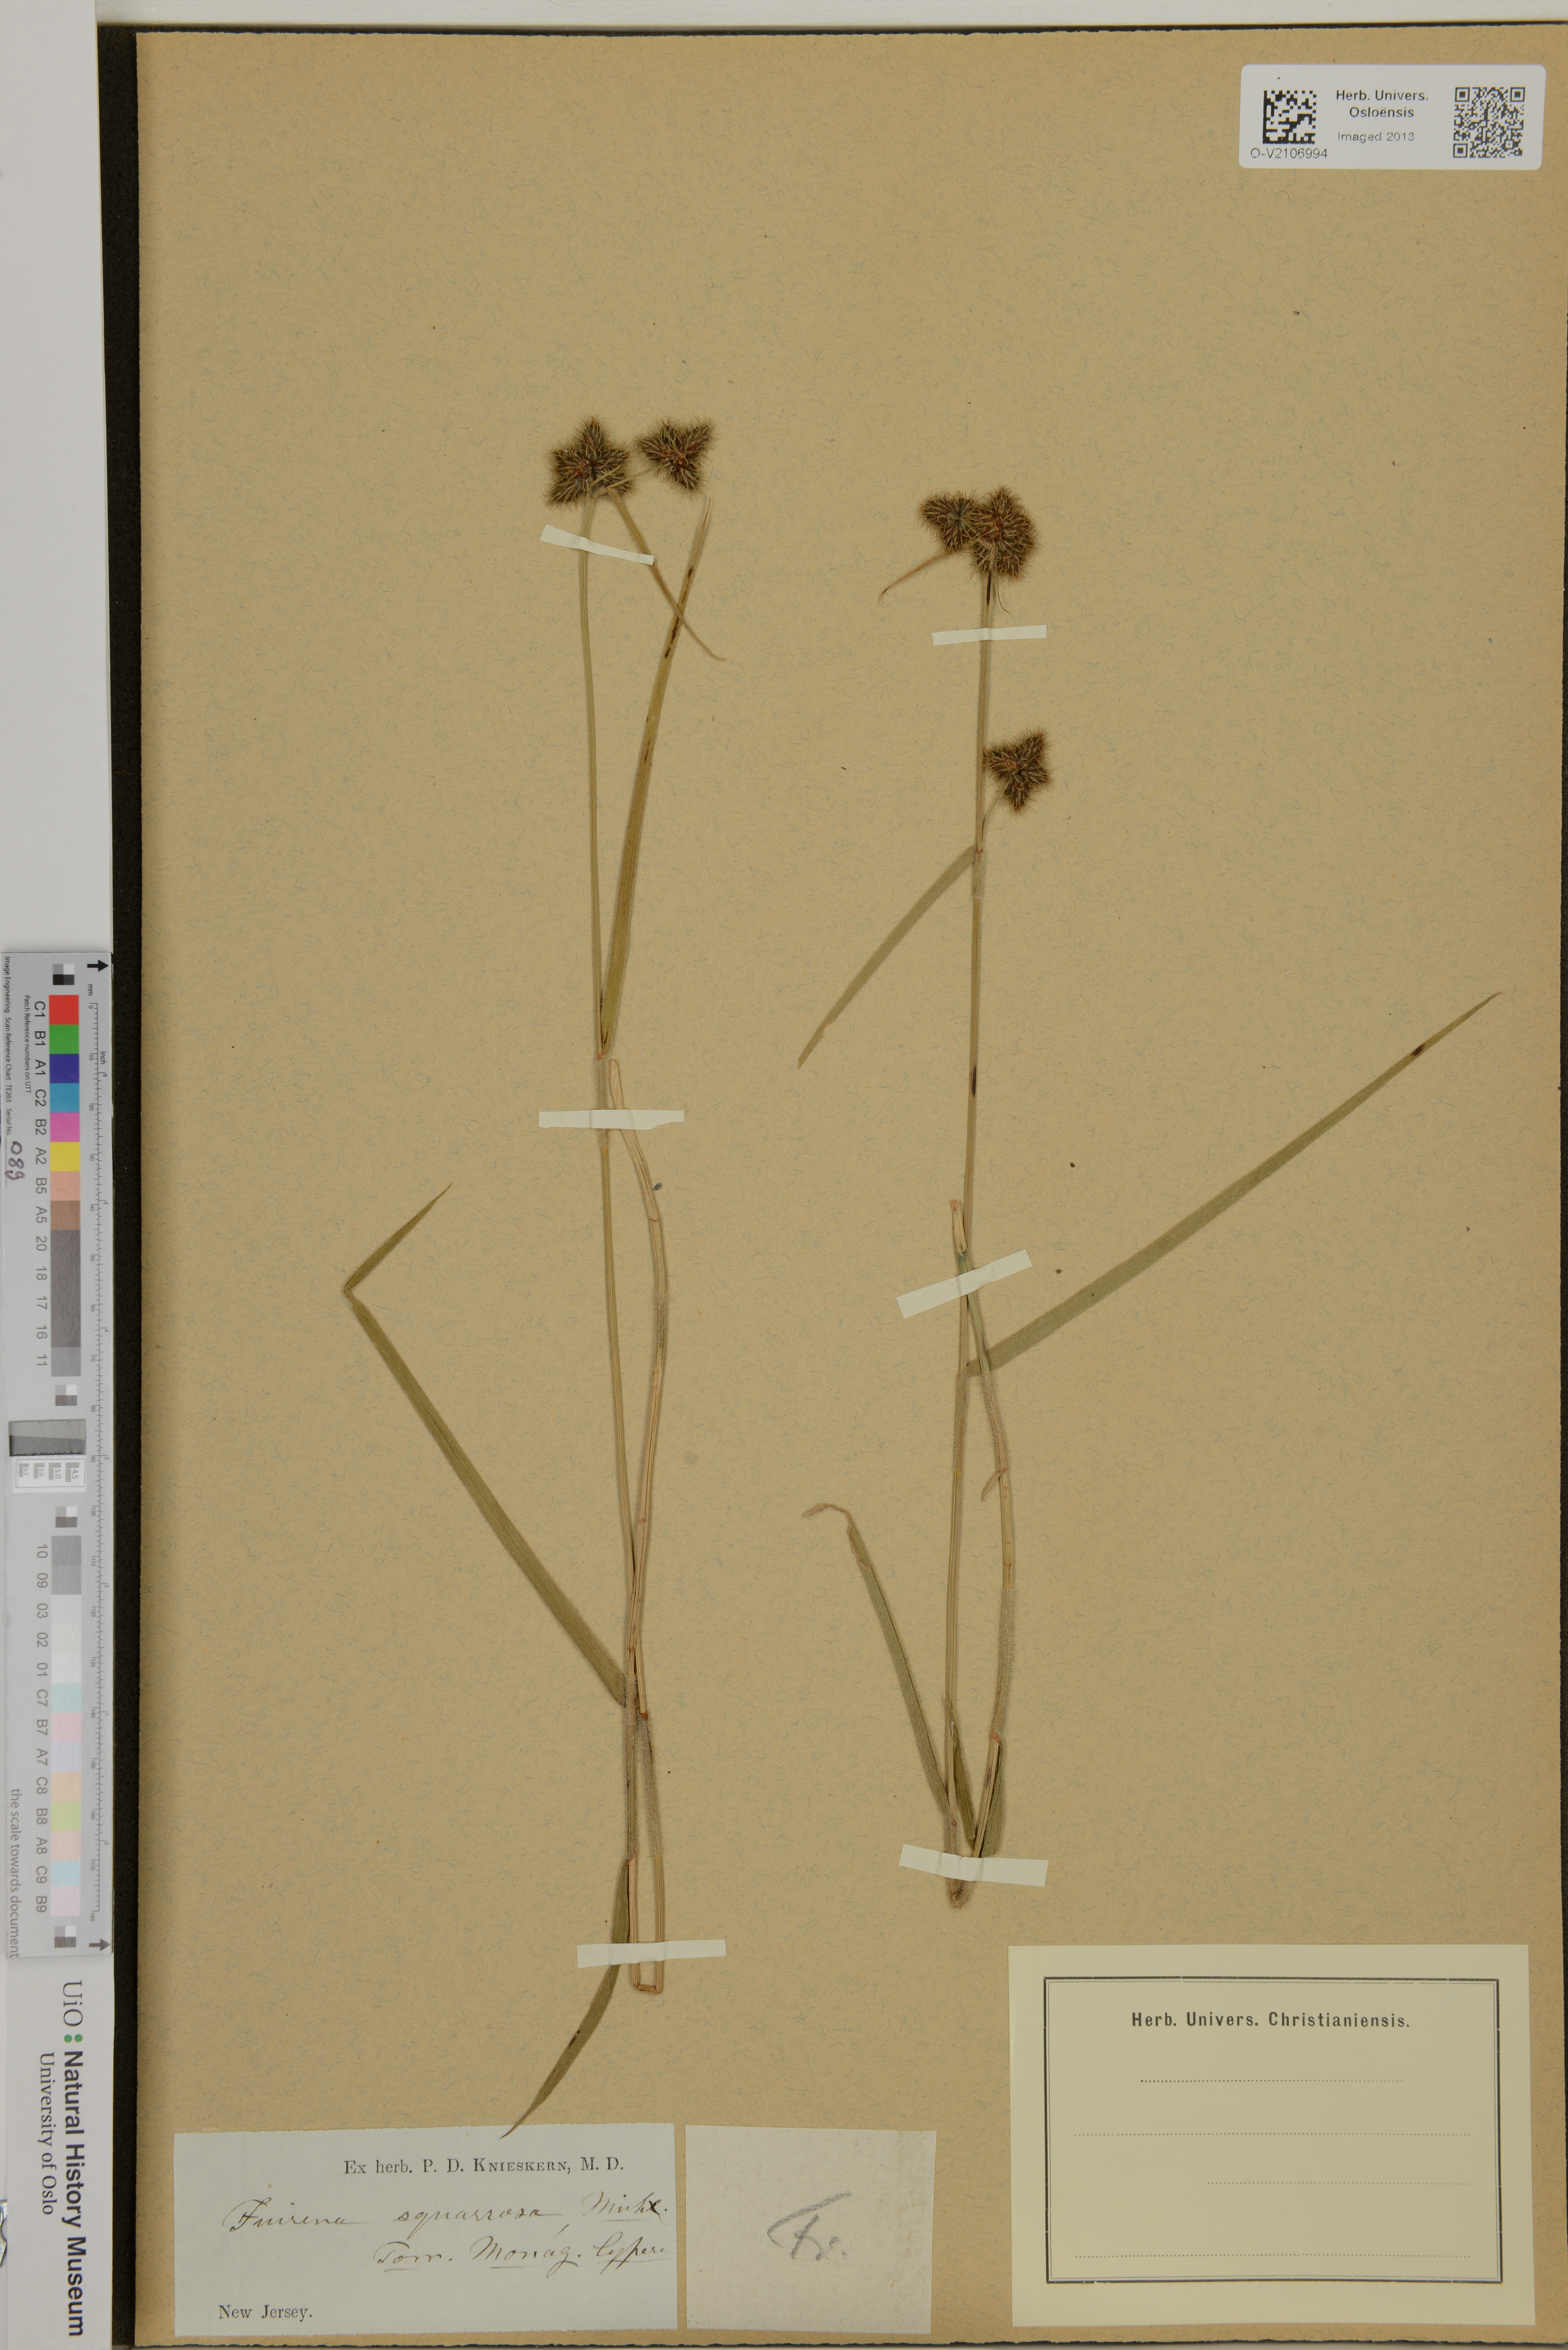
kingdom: Plantae
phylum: Tracheophyta
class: Liliopsida
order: Poales
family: Cyperaceae
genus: Fuirena
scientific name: Fuirena squarrosa
